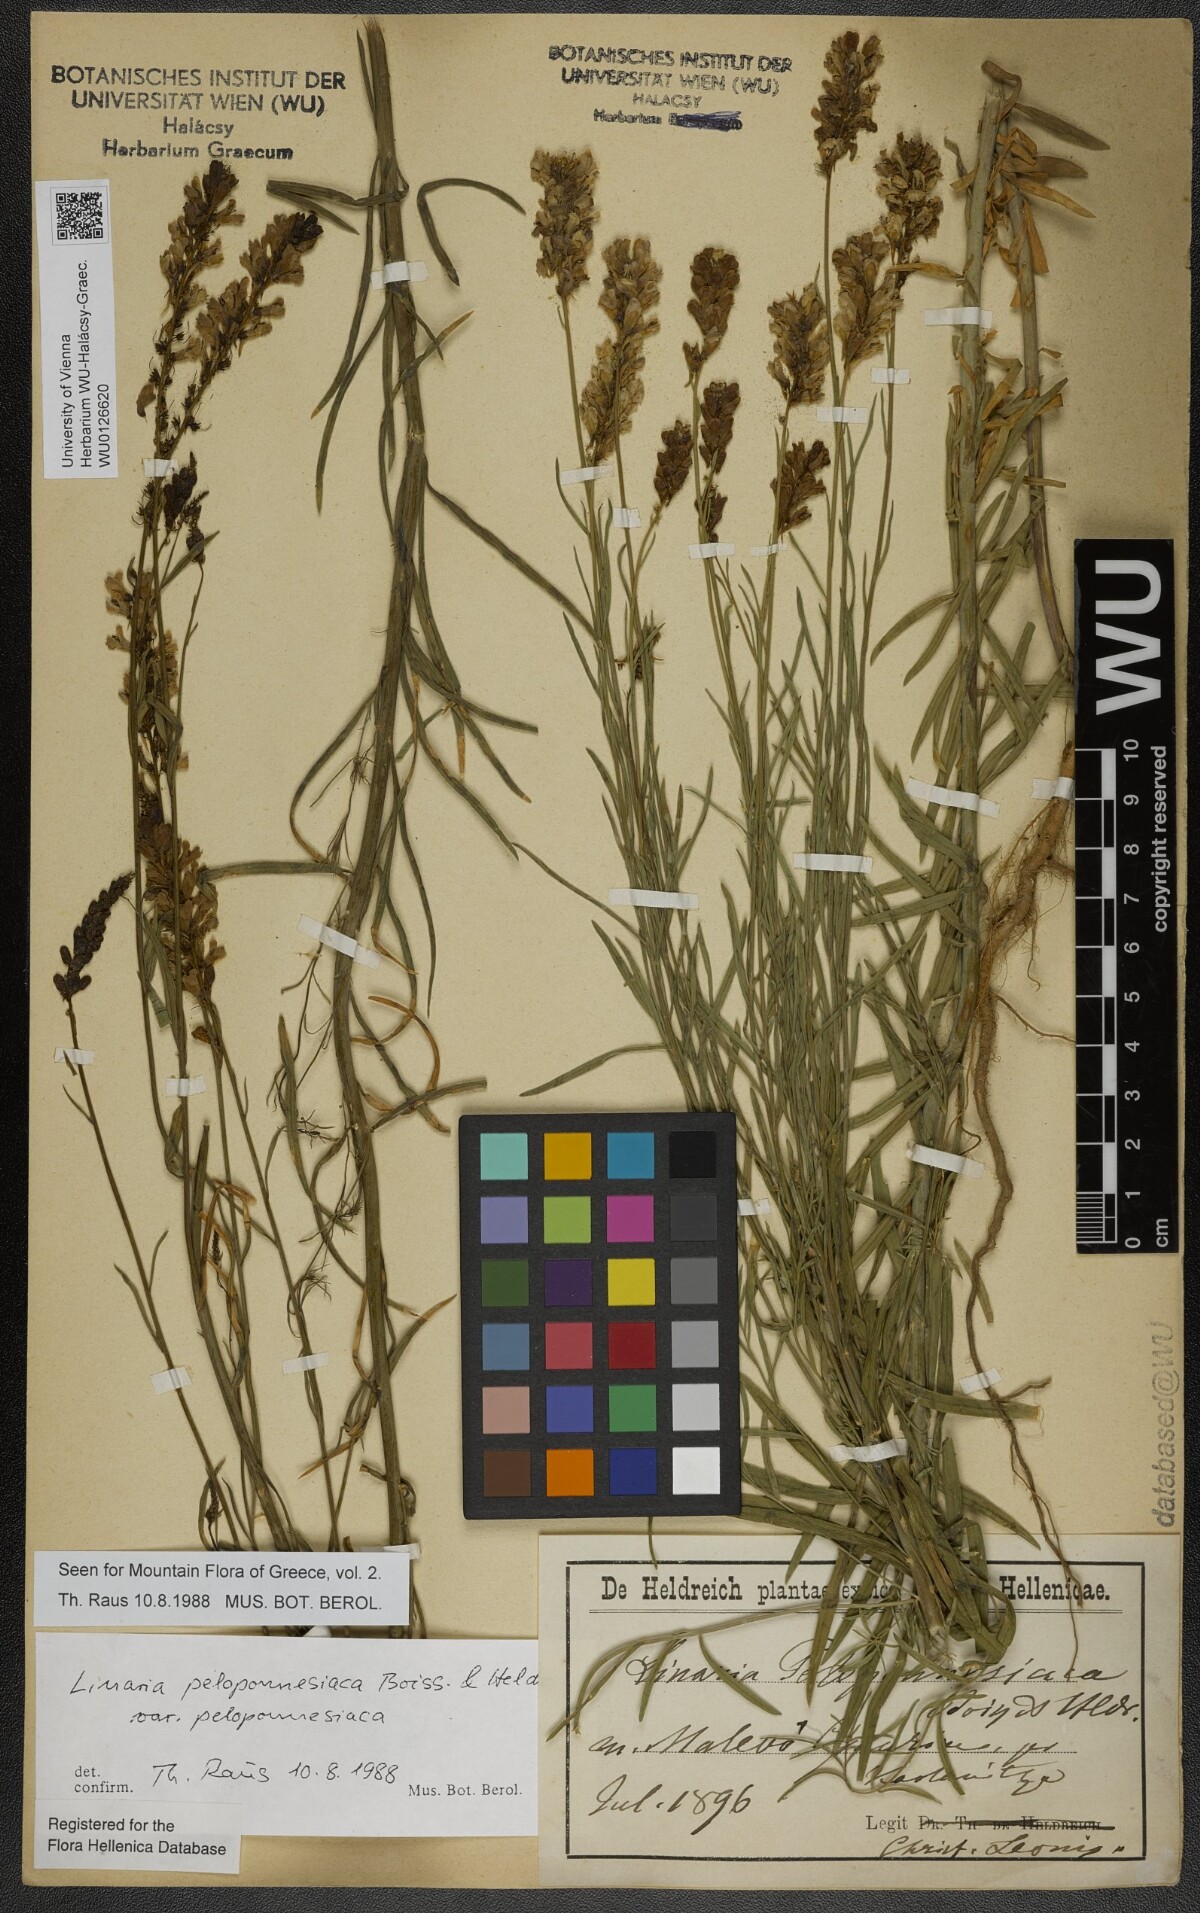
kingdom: Plantae
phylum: Tracheophyta
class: Magnoliopsida
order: Lamiales
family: Plantaginaceae
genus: Linaria
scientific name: Linaria peloponnesiaca
